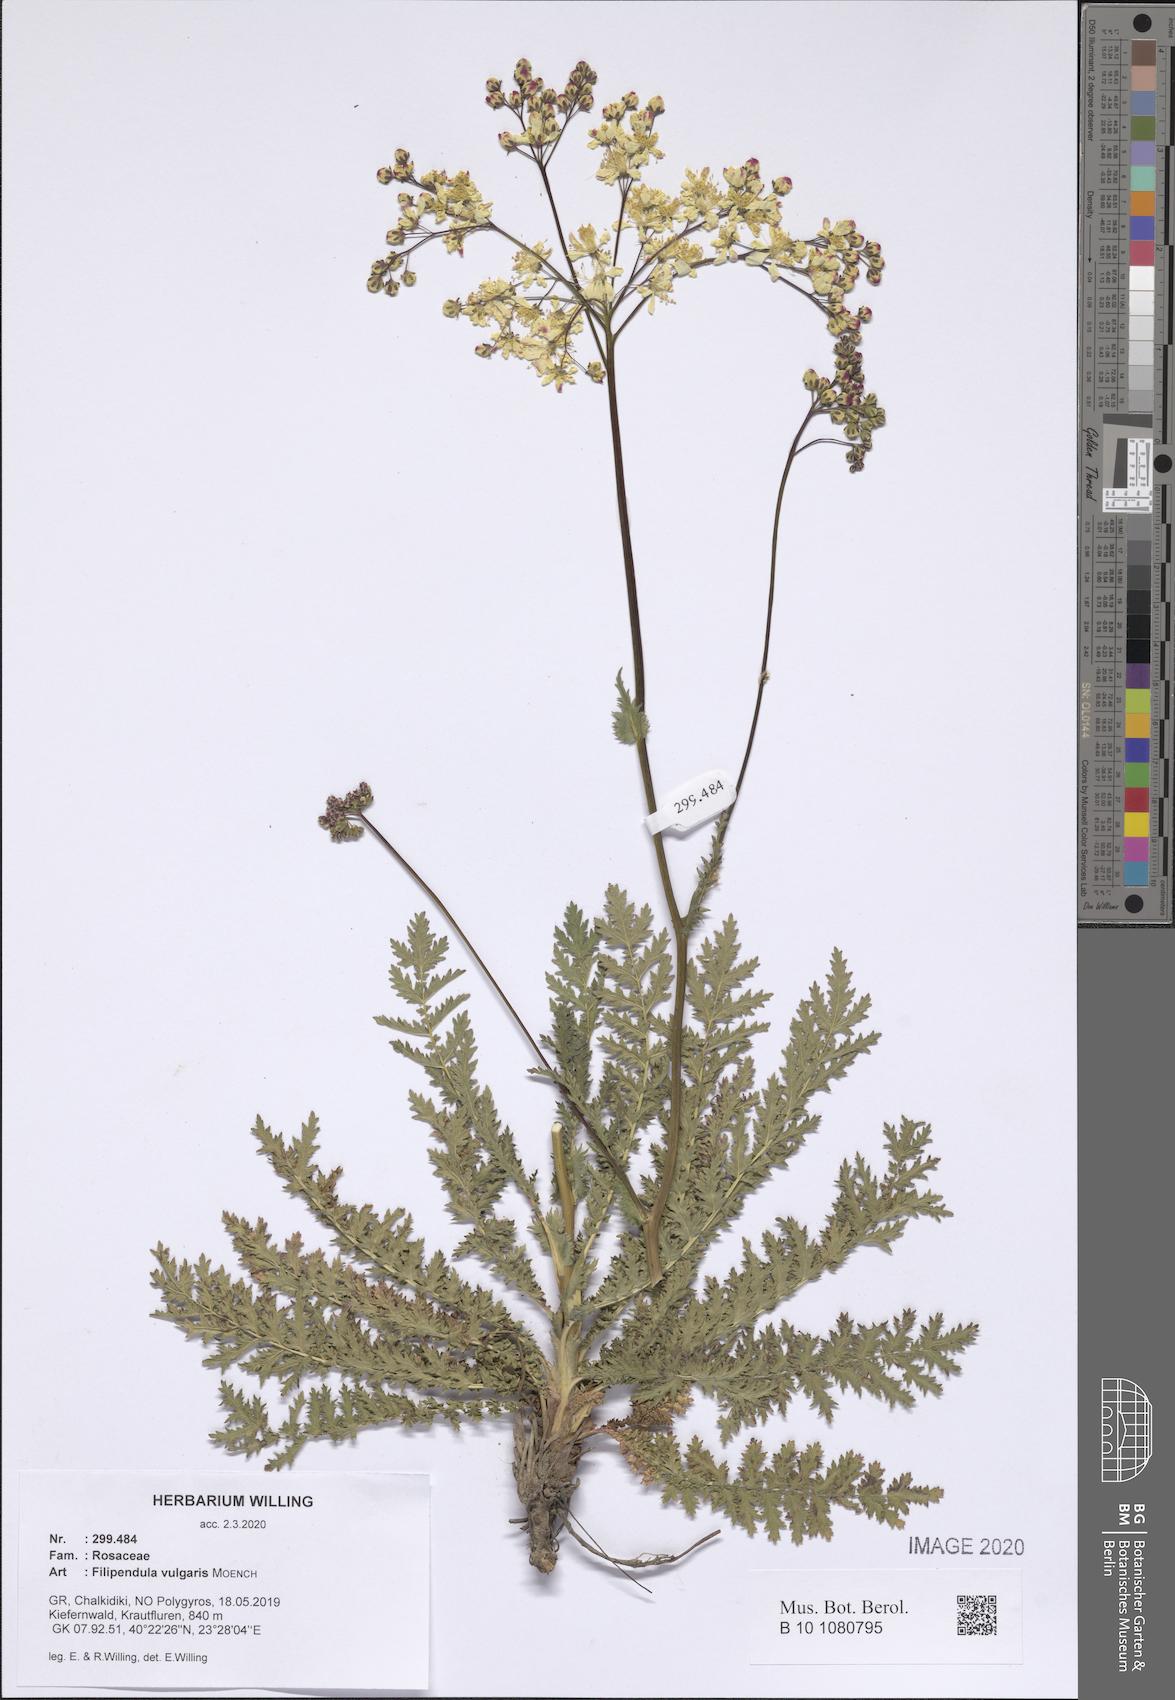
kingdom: Plantae
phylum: Tracheophyta
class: Magnoliopsida
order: Rosales
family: Rosaceae
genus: Filipendula
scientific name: Filipendula vulgaris
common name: Dropwort
